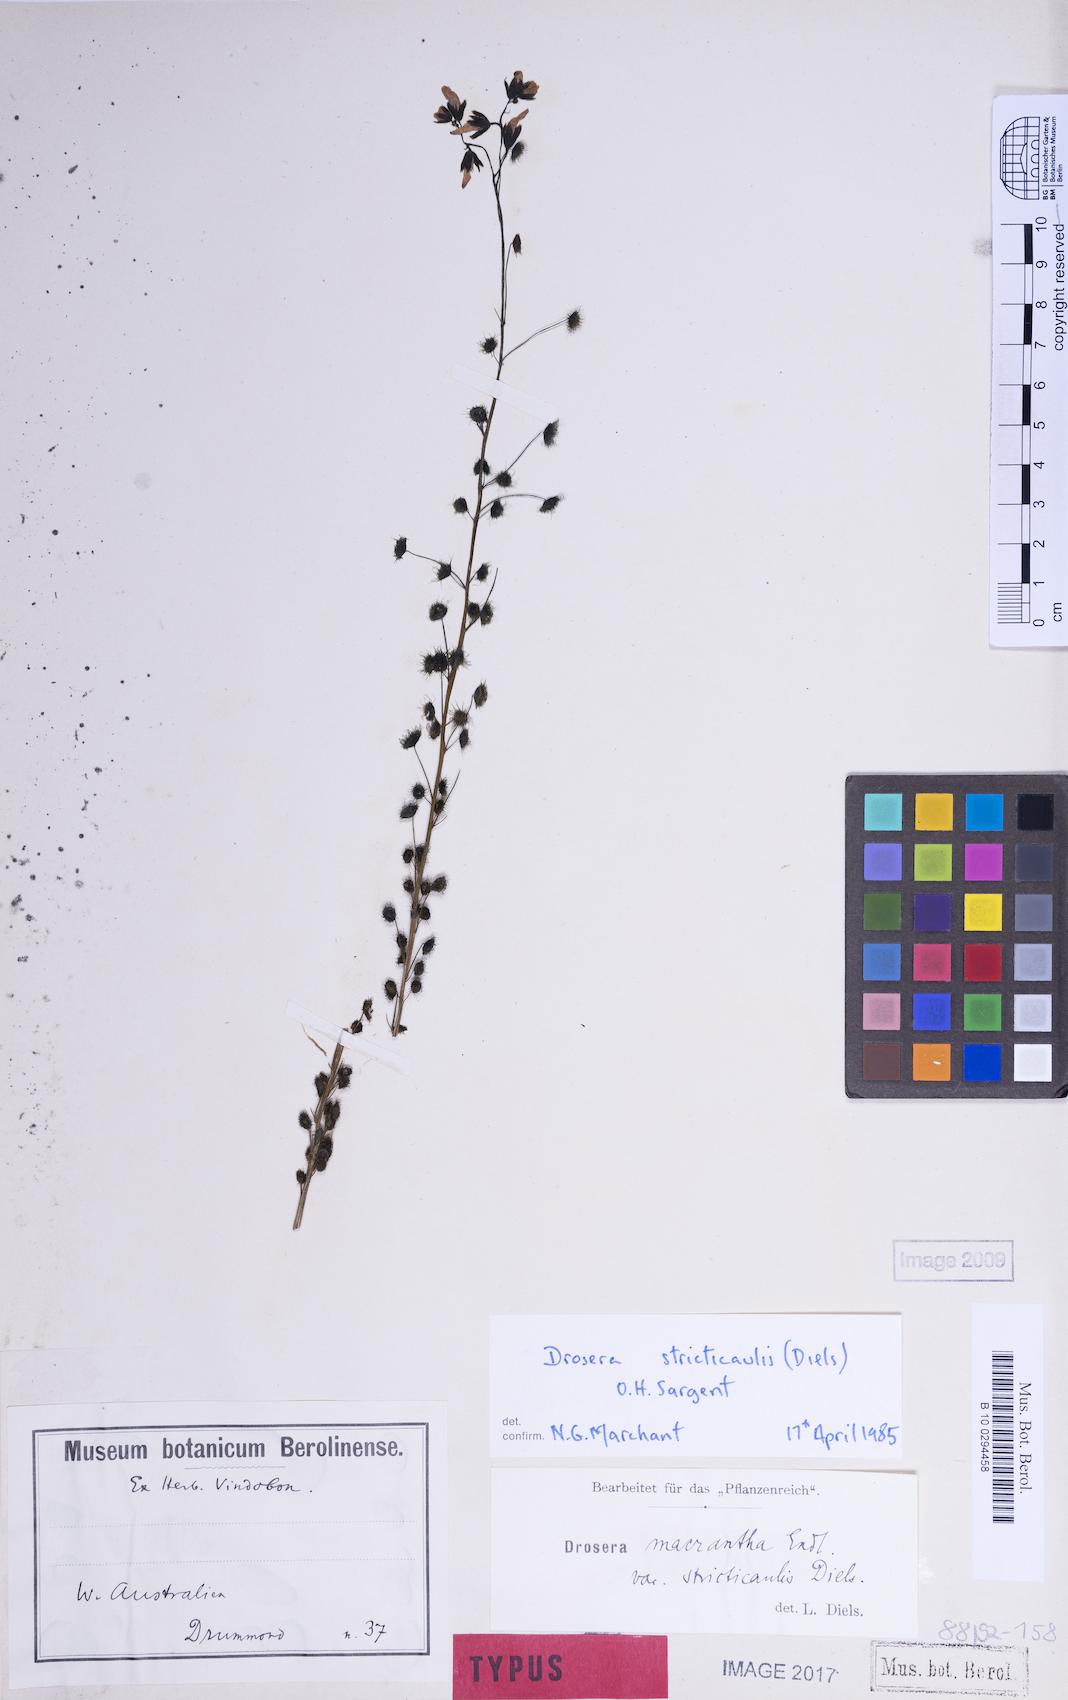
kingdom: Plantae
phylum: Tracheophyta
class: Magnoliopsida
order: Caryophyllales
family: Droseraceae
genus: Drosera
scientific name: Drosera stricticaulis
